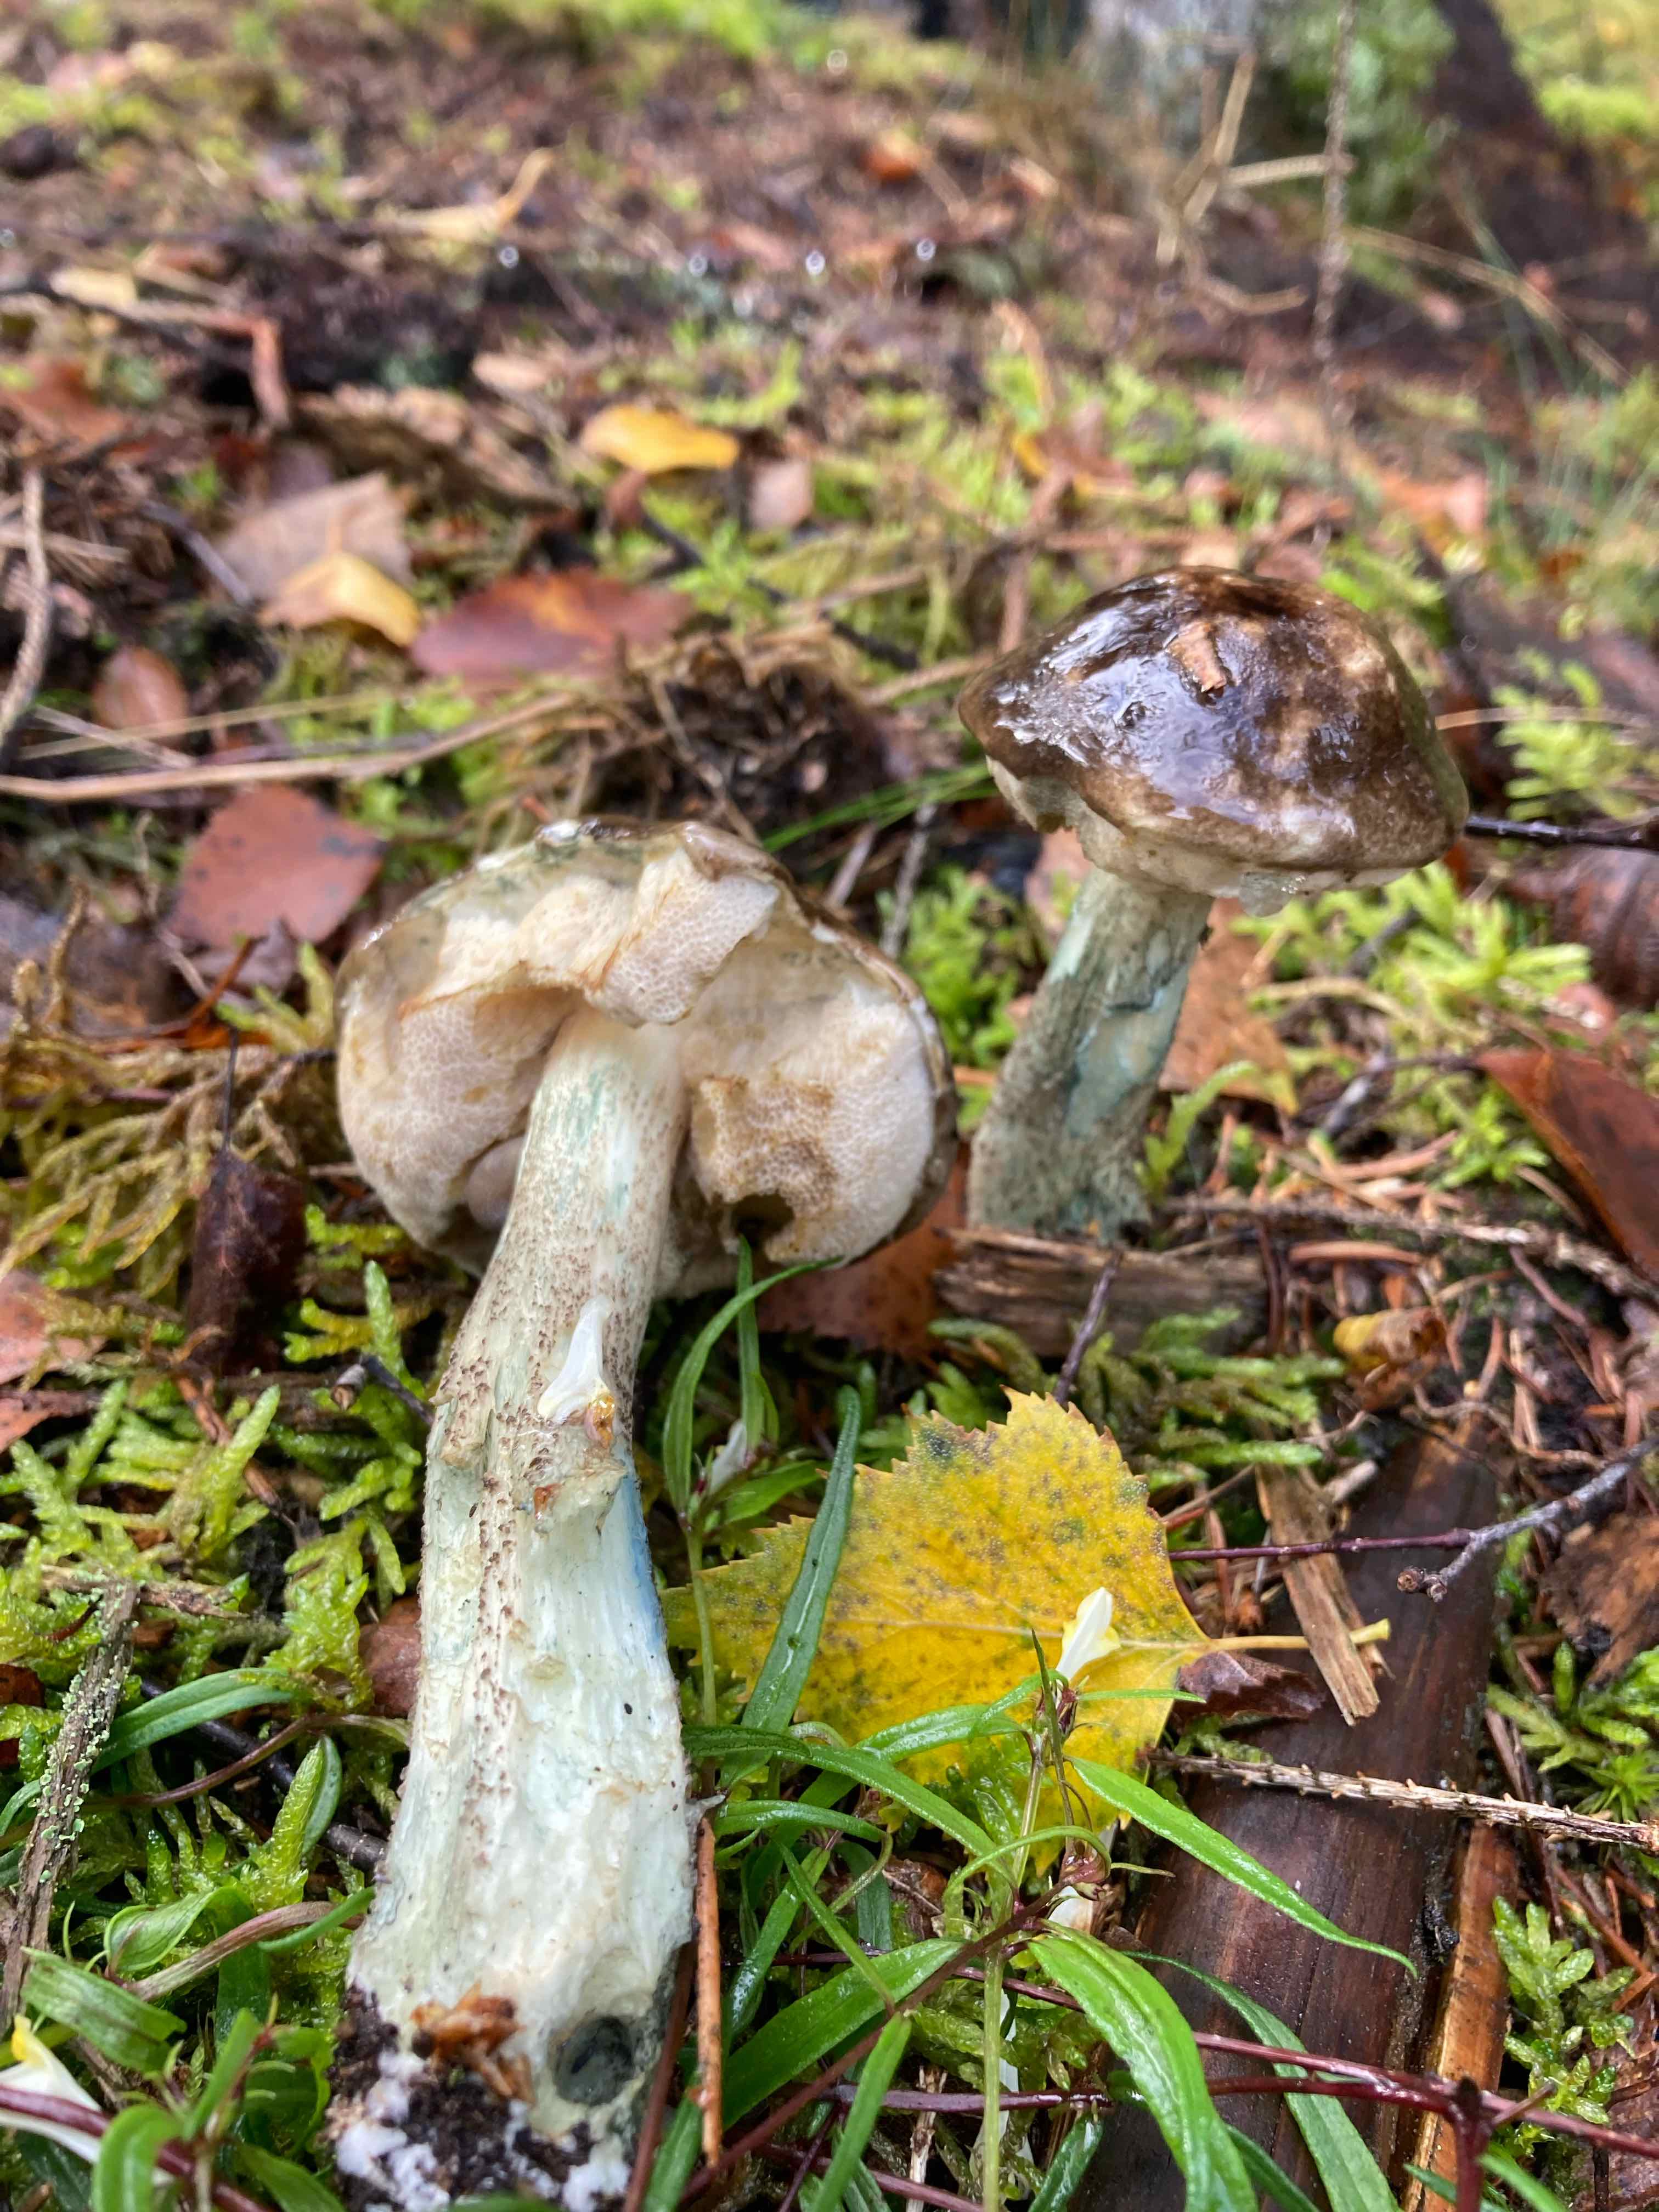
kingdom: Fungi
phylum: Basidiomycota
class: Agaricomycetes
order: Boletales
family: Boletaceae
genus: Leccinum
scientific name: Leccinum variicolor
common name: flammet skælrørhat
